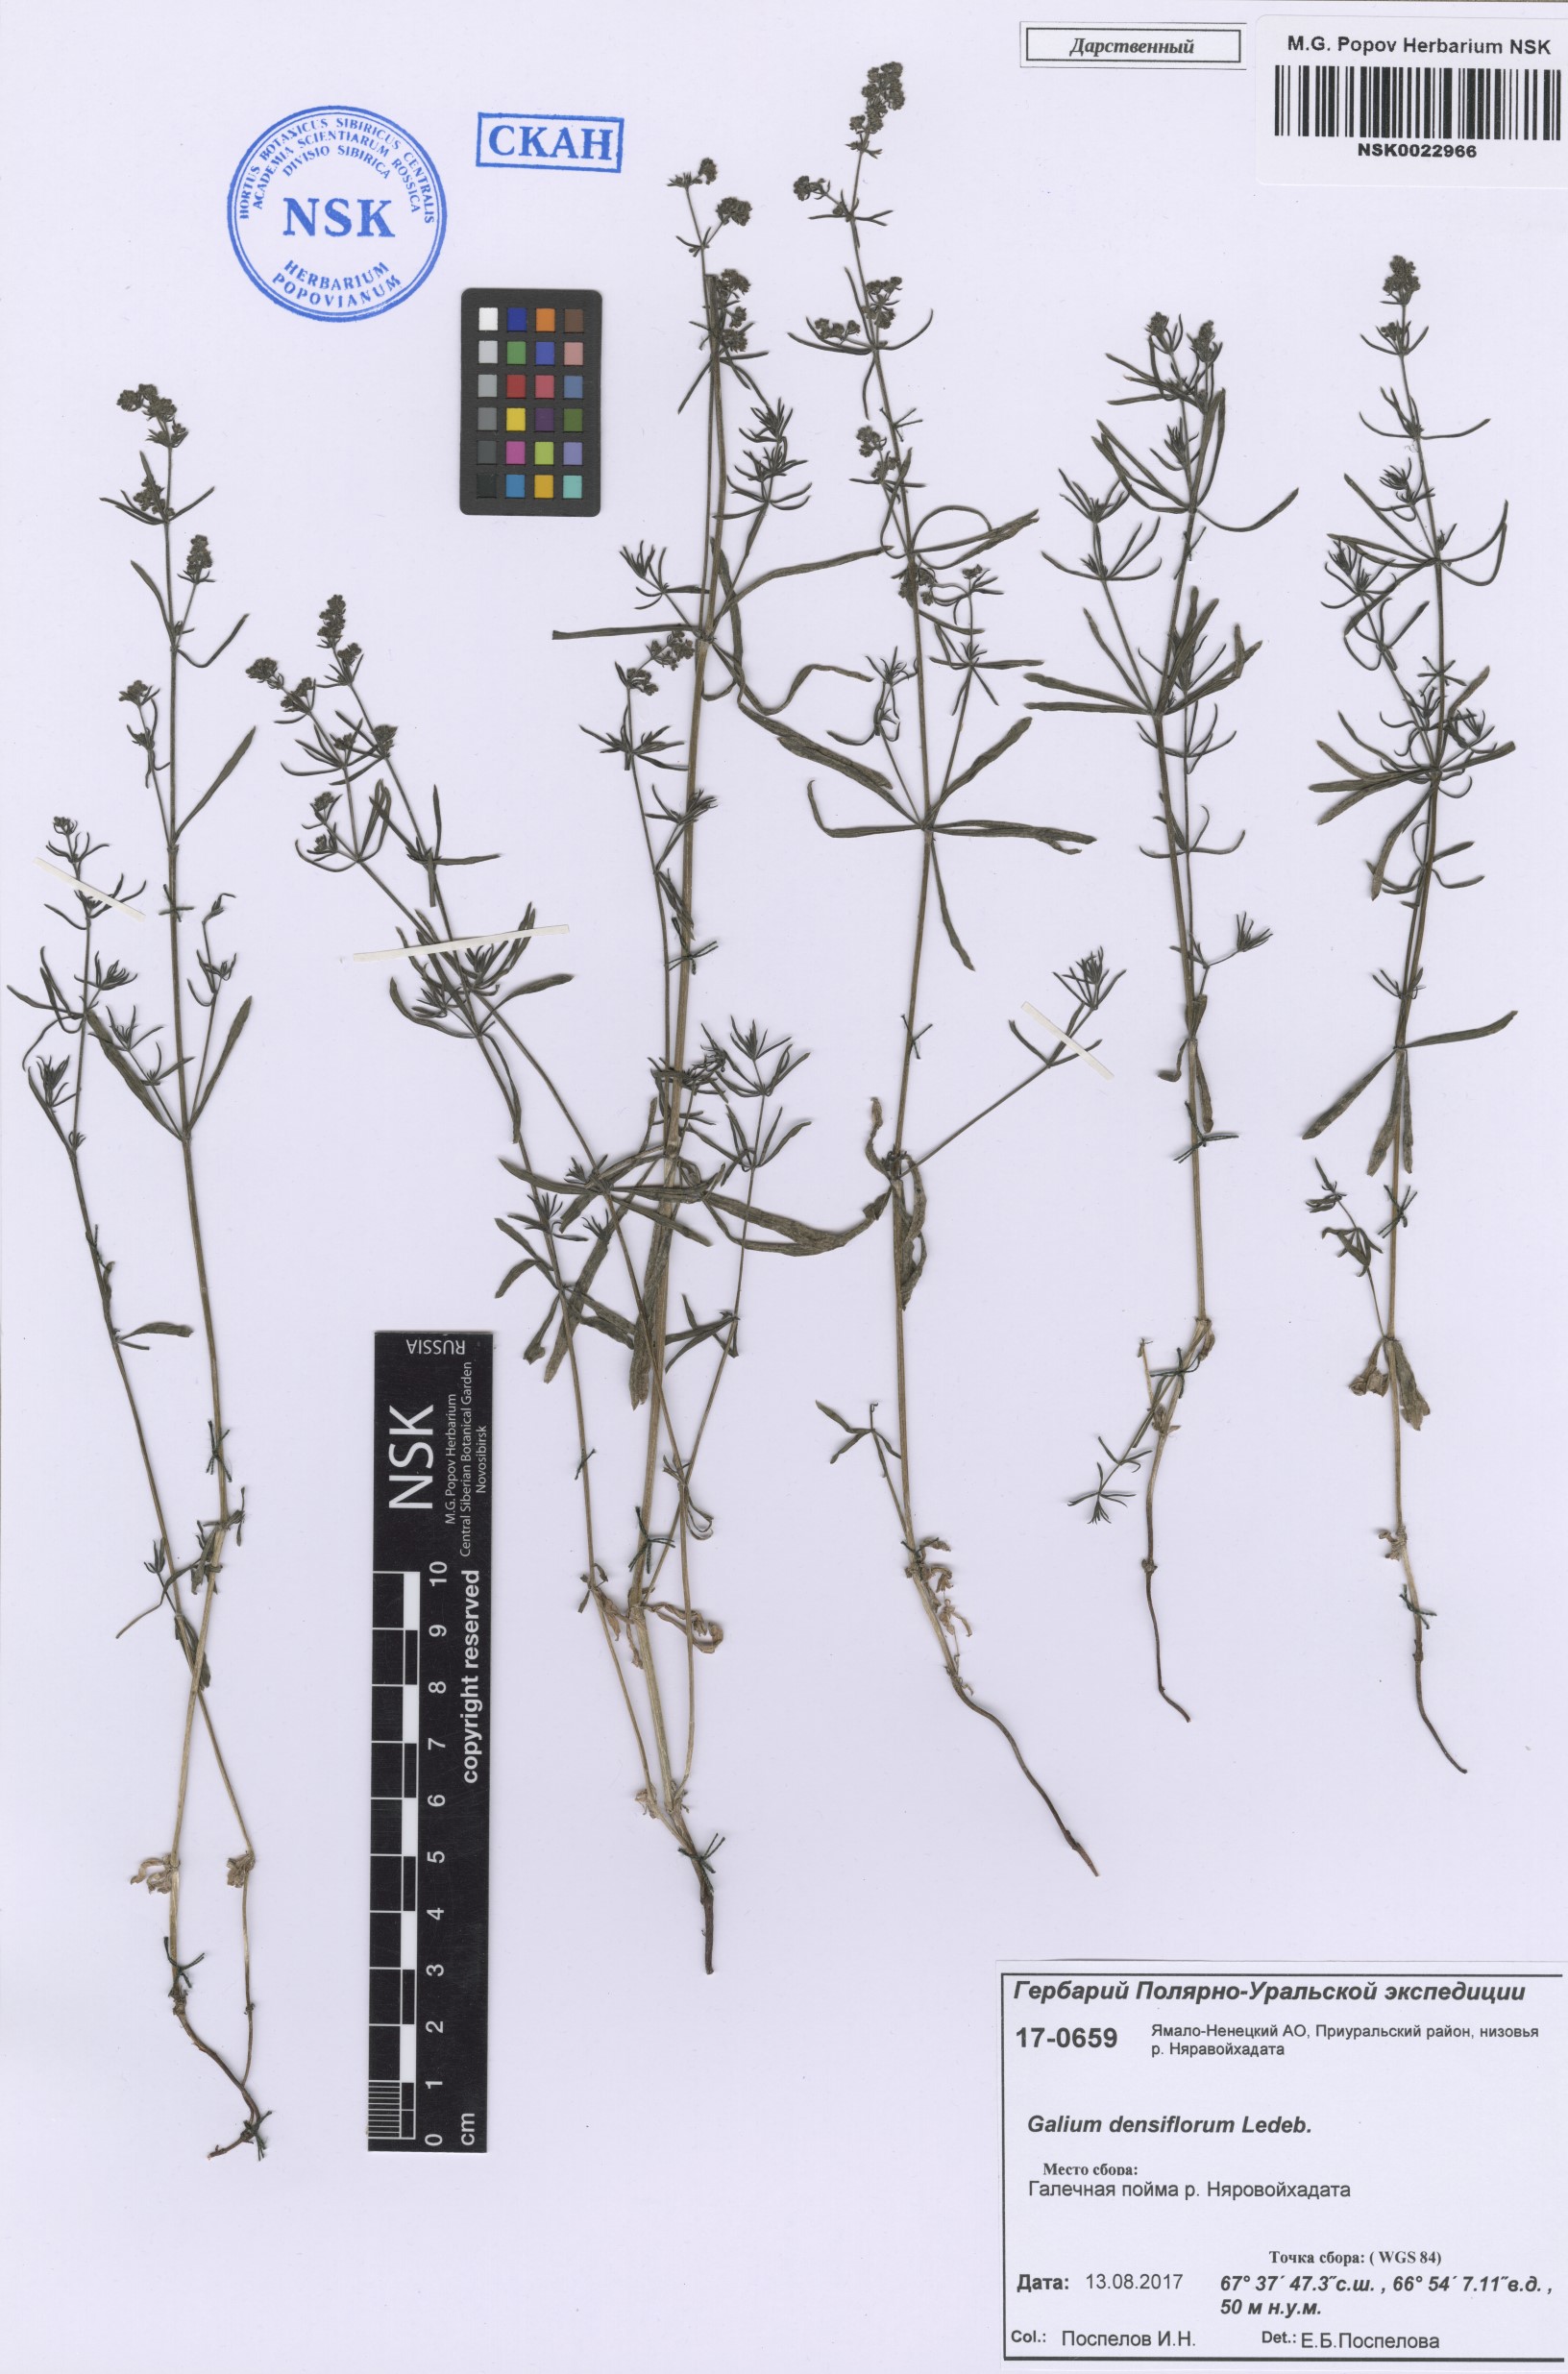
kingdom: Plantae
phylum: Tracheophyta
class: Magnoliopsida
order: Gentianales
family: Rubiaceae
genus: Galium
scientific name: Galium densiflorum
